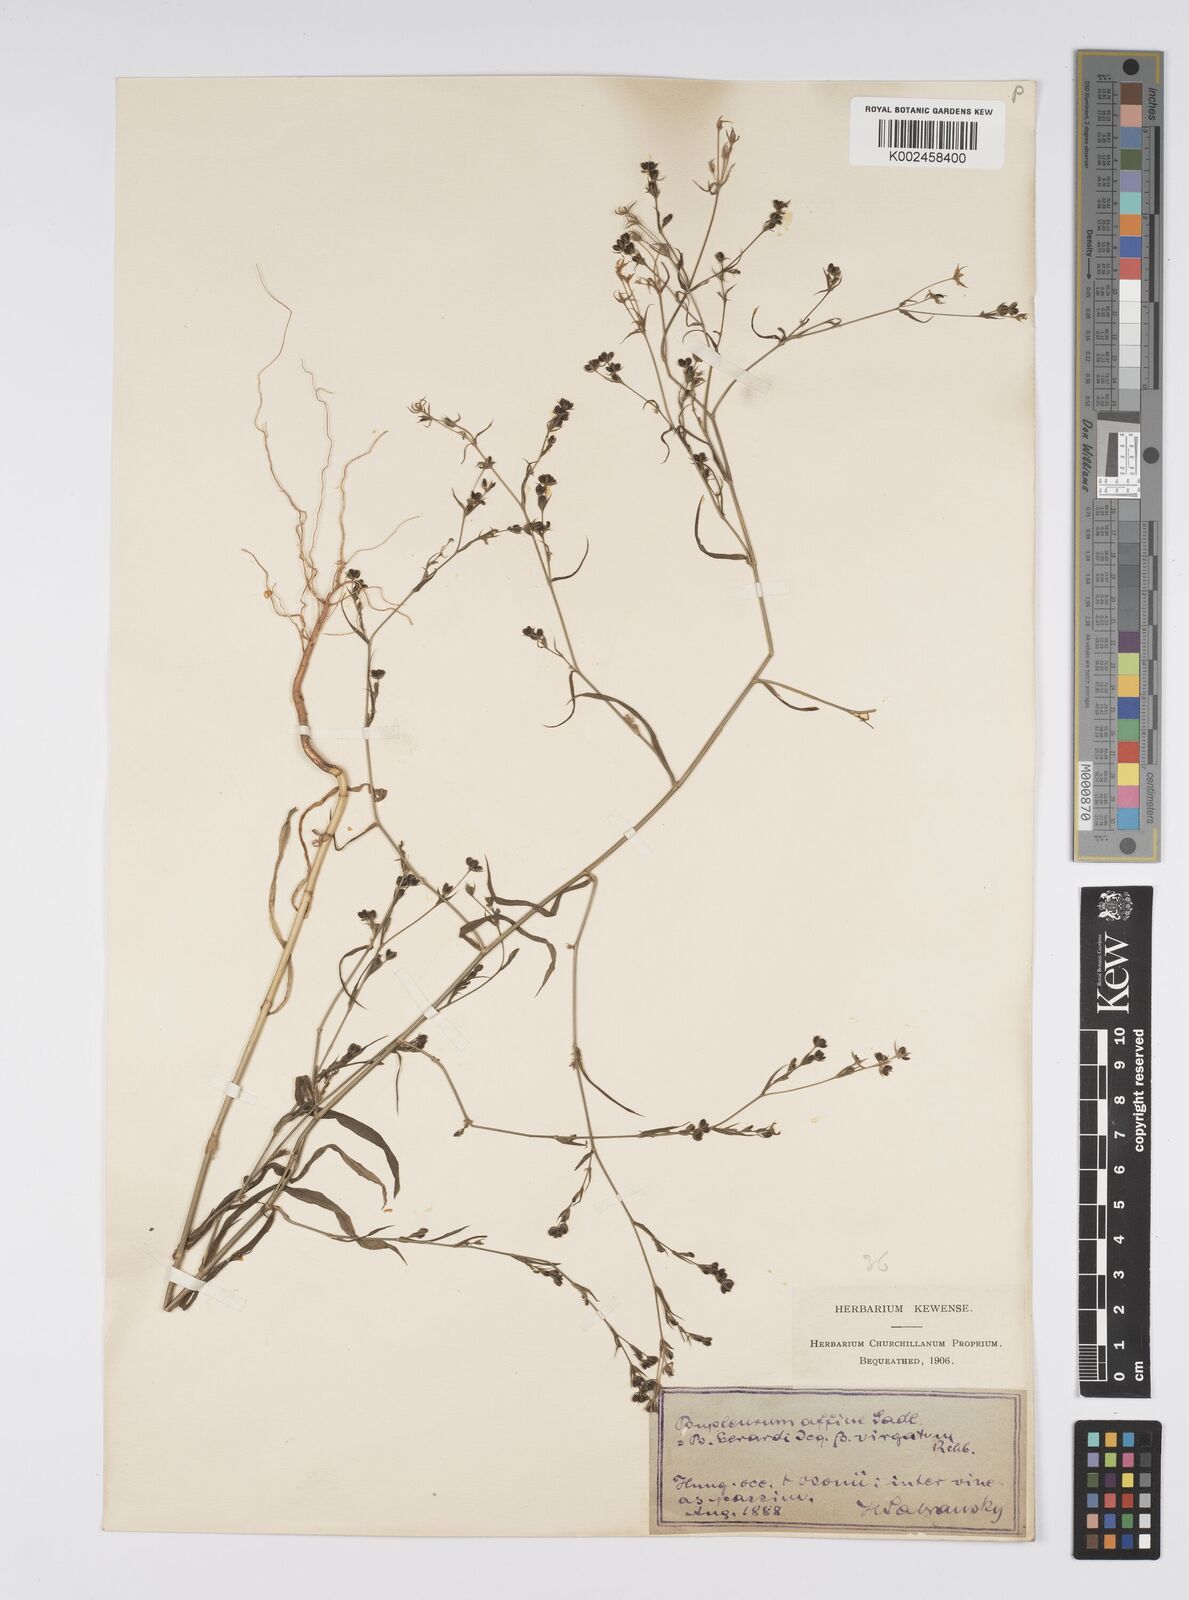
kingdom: Plantae
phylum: Tracheophyta
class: Magnoliopsida
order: Apiales
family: Apiaceae
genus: Bupleurum
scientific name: Bupleurum affine
